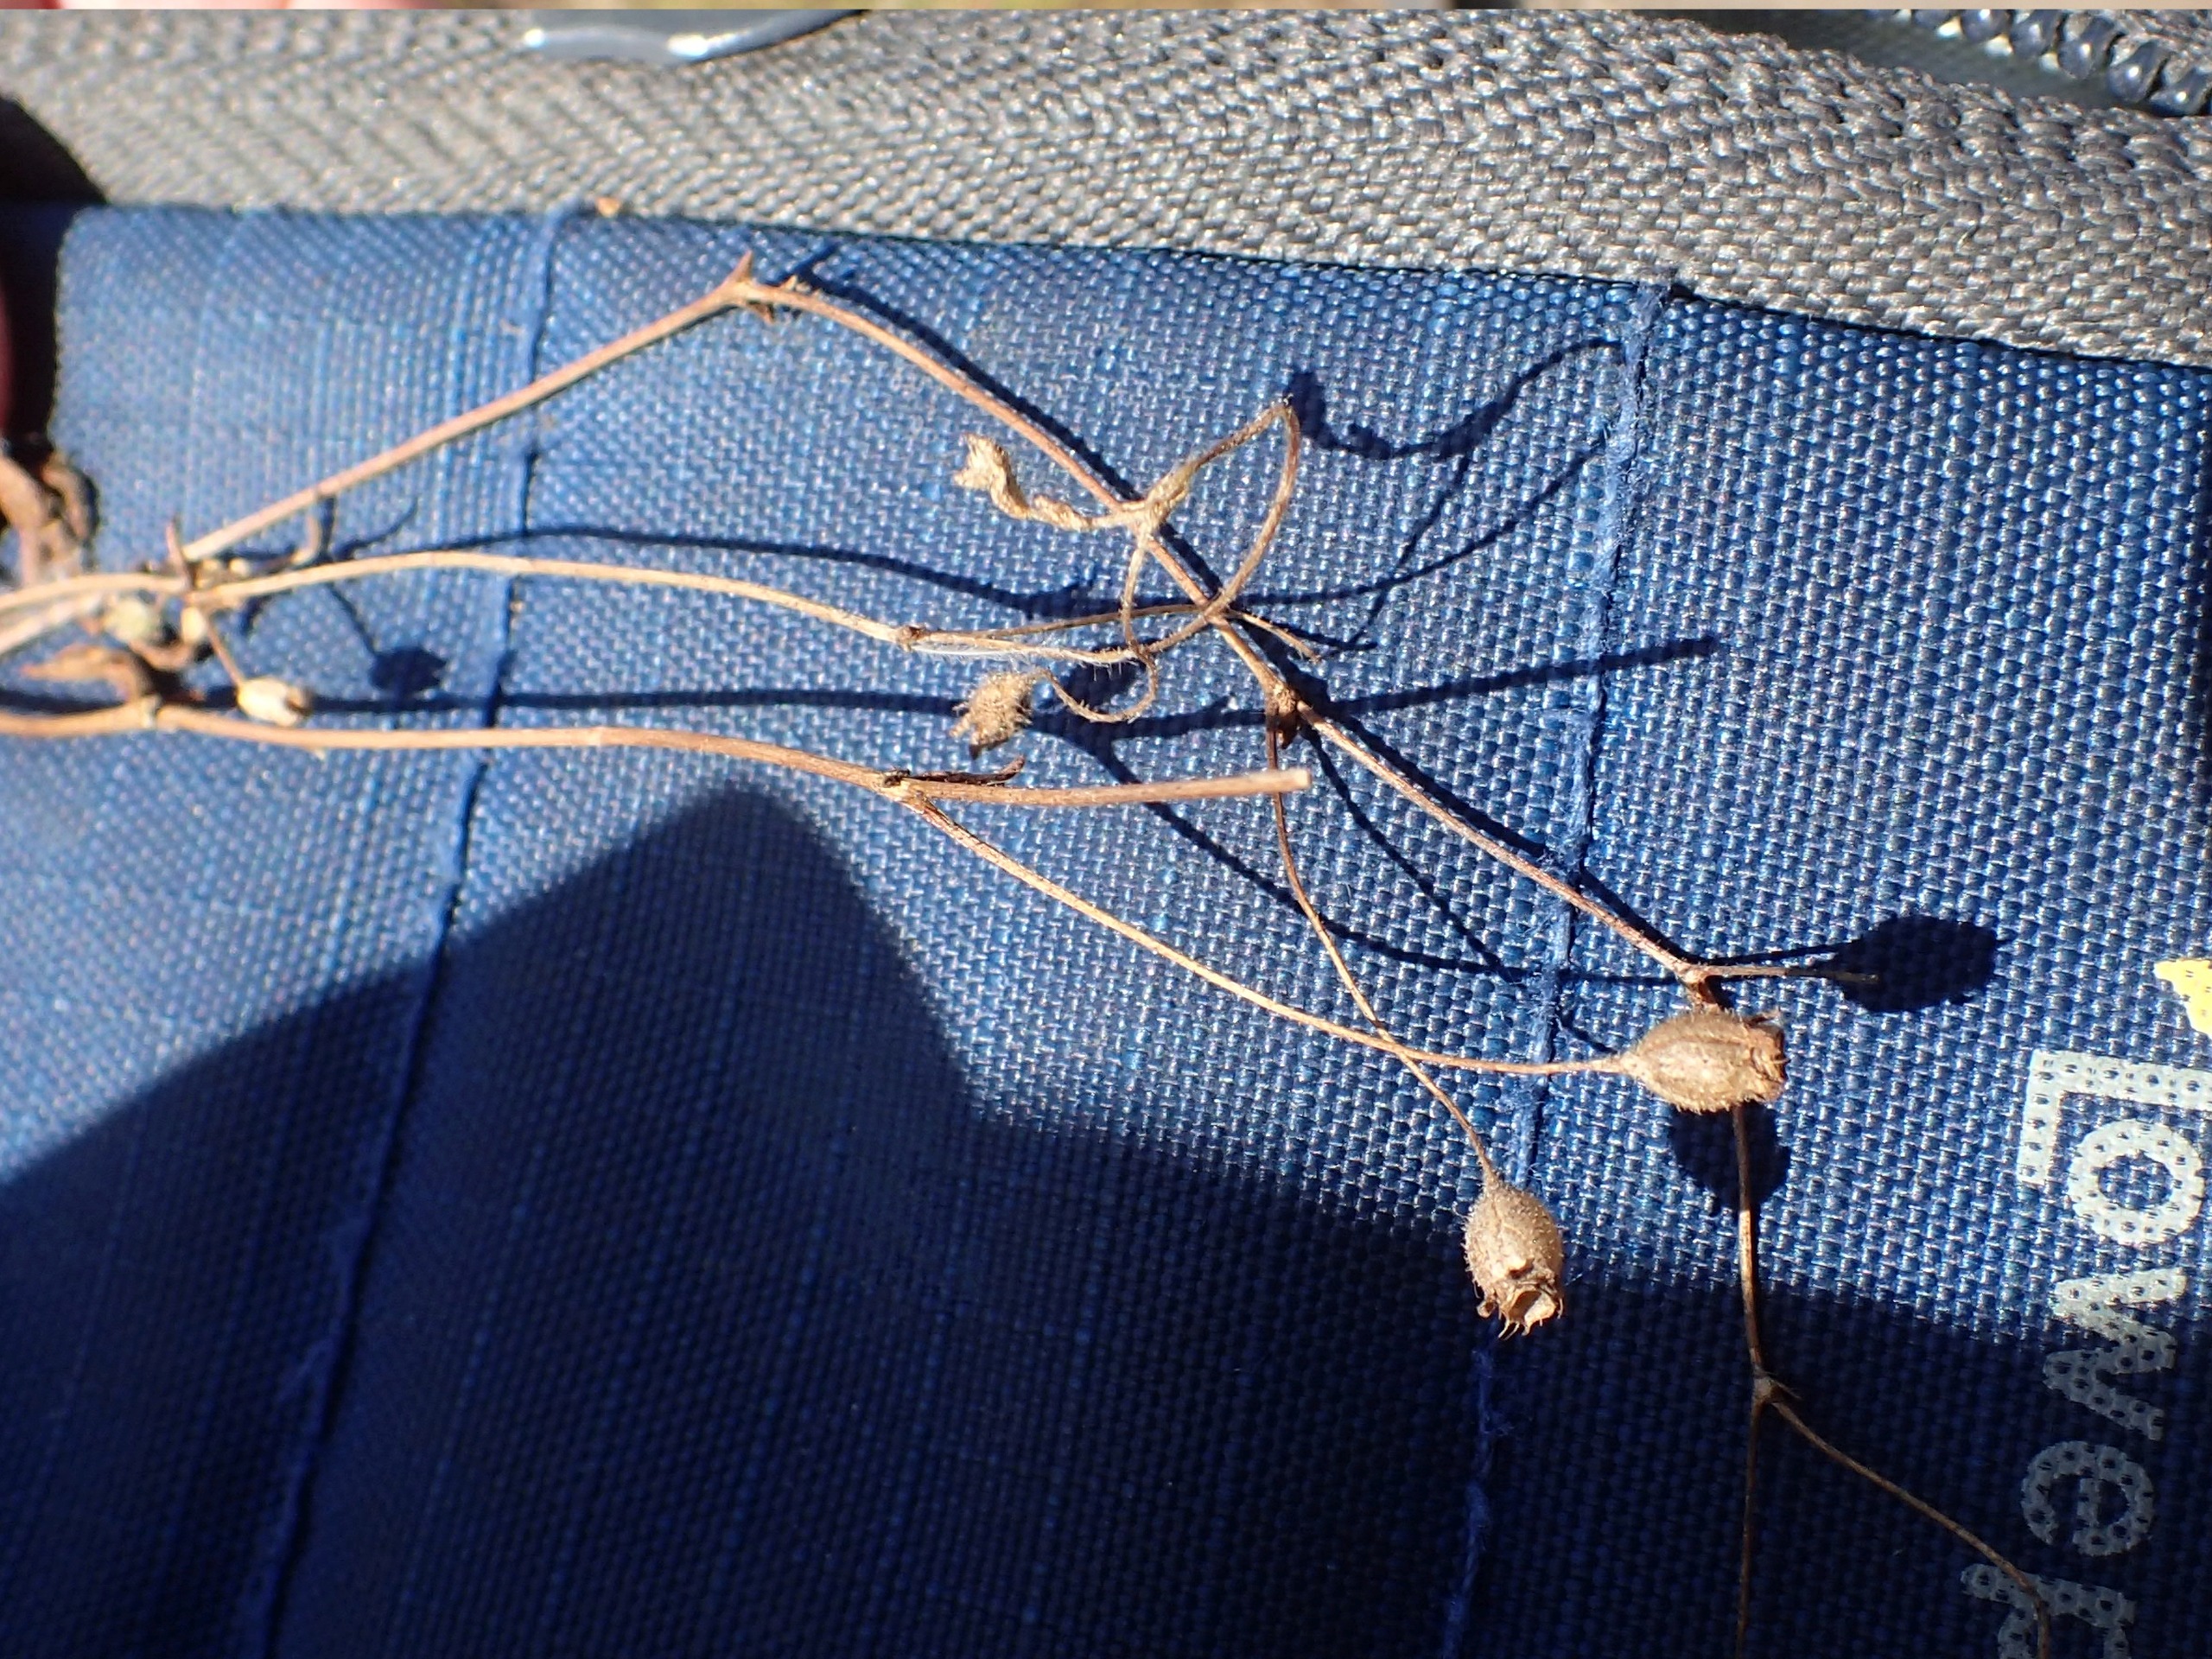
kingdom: Plantae
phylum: Tracheophyta
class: Magnoliopsida
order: Saxifragales
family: Saxifragaceae
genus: Saxifraga
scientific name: Saxifraga tridactylites
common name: Trekløft-stenbræk
